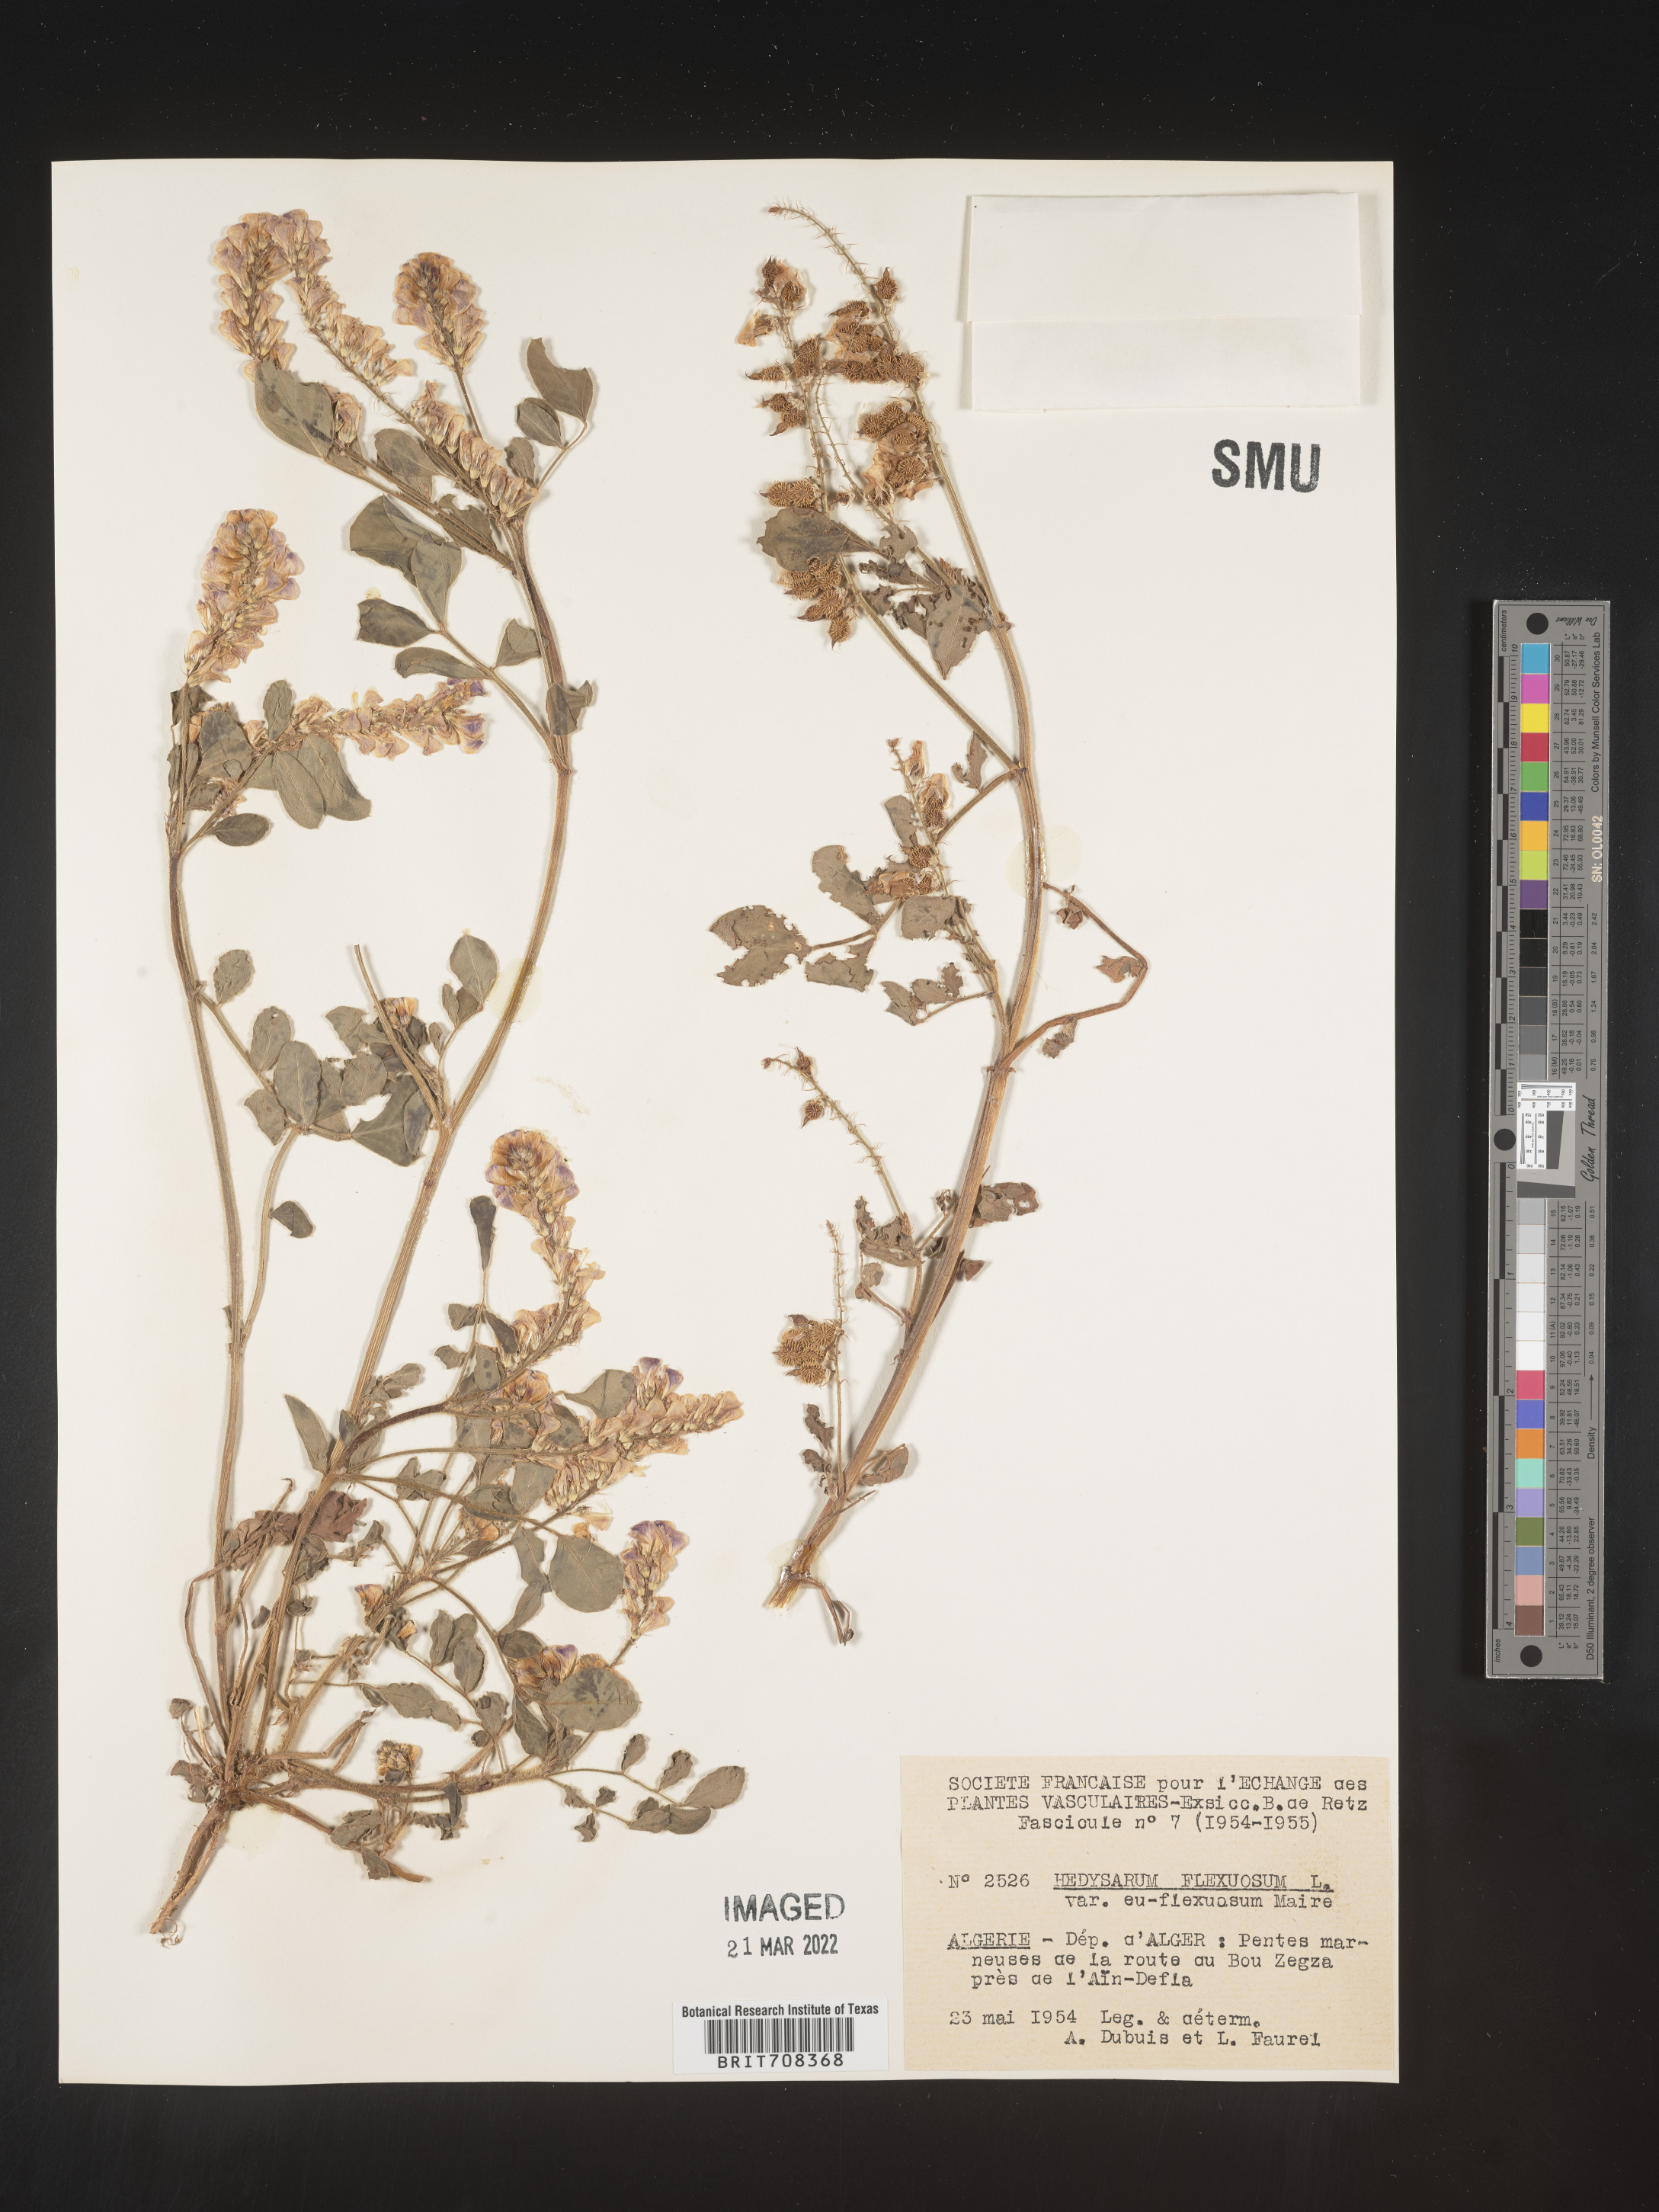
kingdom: Plantae
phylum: Tracheophyta
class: Magnoliopsida
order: Fabales
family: Fabaceae
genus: Hedysarum
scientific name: Hedysarum
